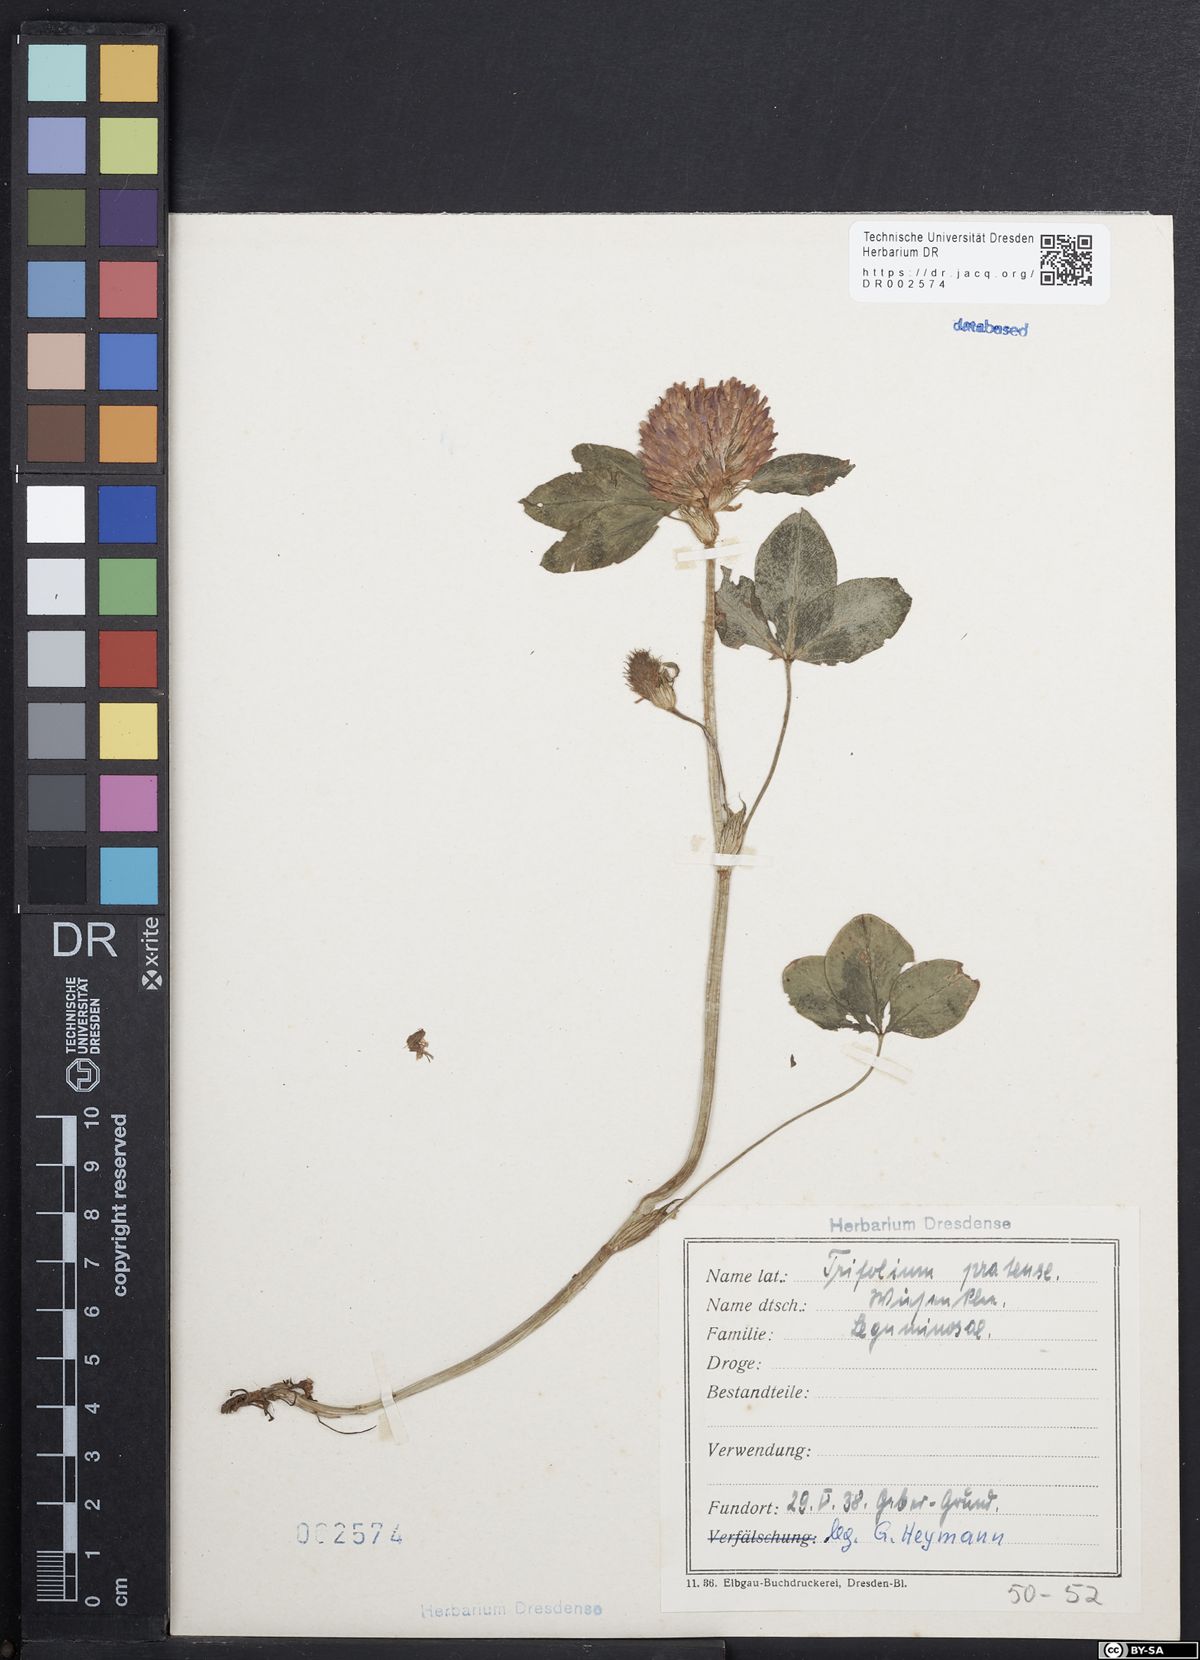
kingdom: Plantae
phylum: Tracheophyta
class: Magnoliopsida
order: Fabales
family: Fabaceae
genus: Trifolium
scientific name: Trifolium pratense
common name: Red clover
